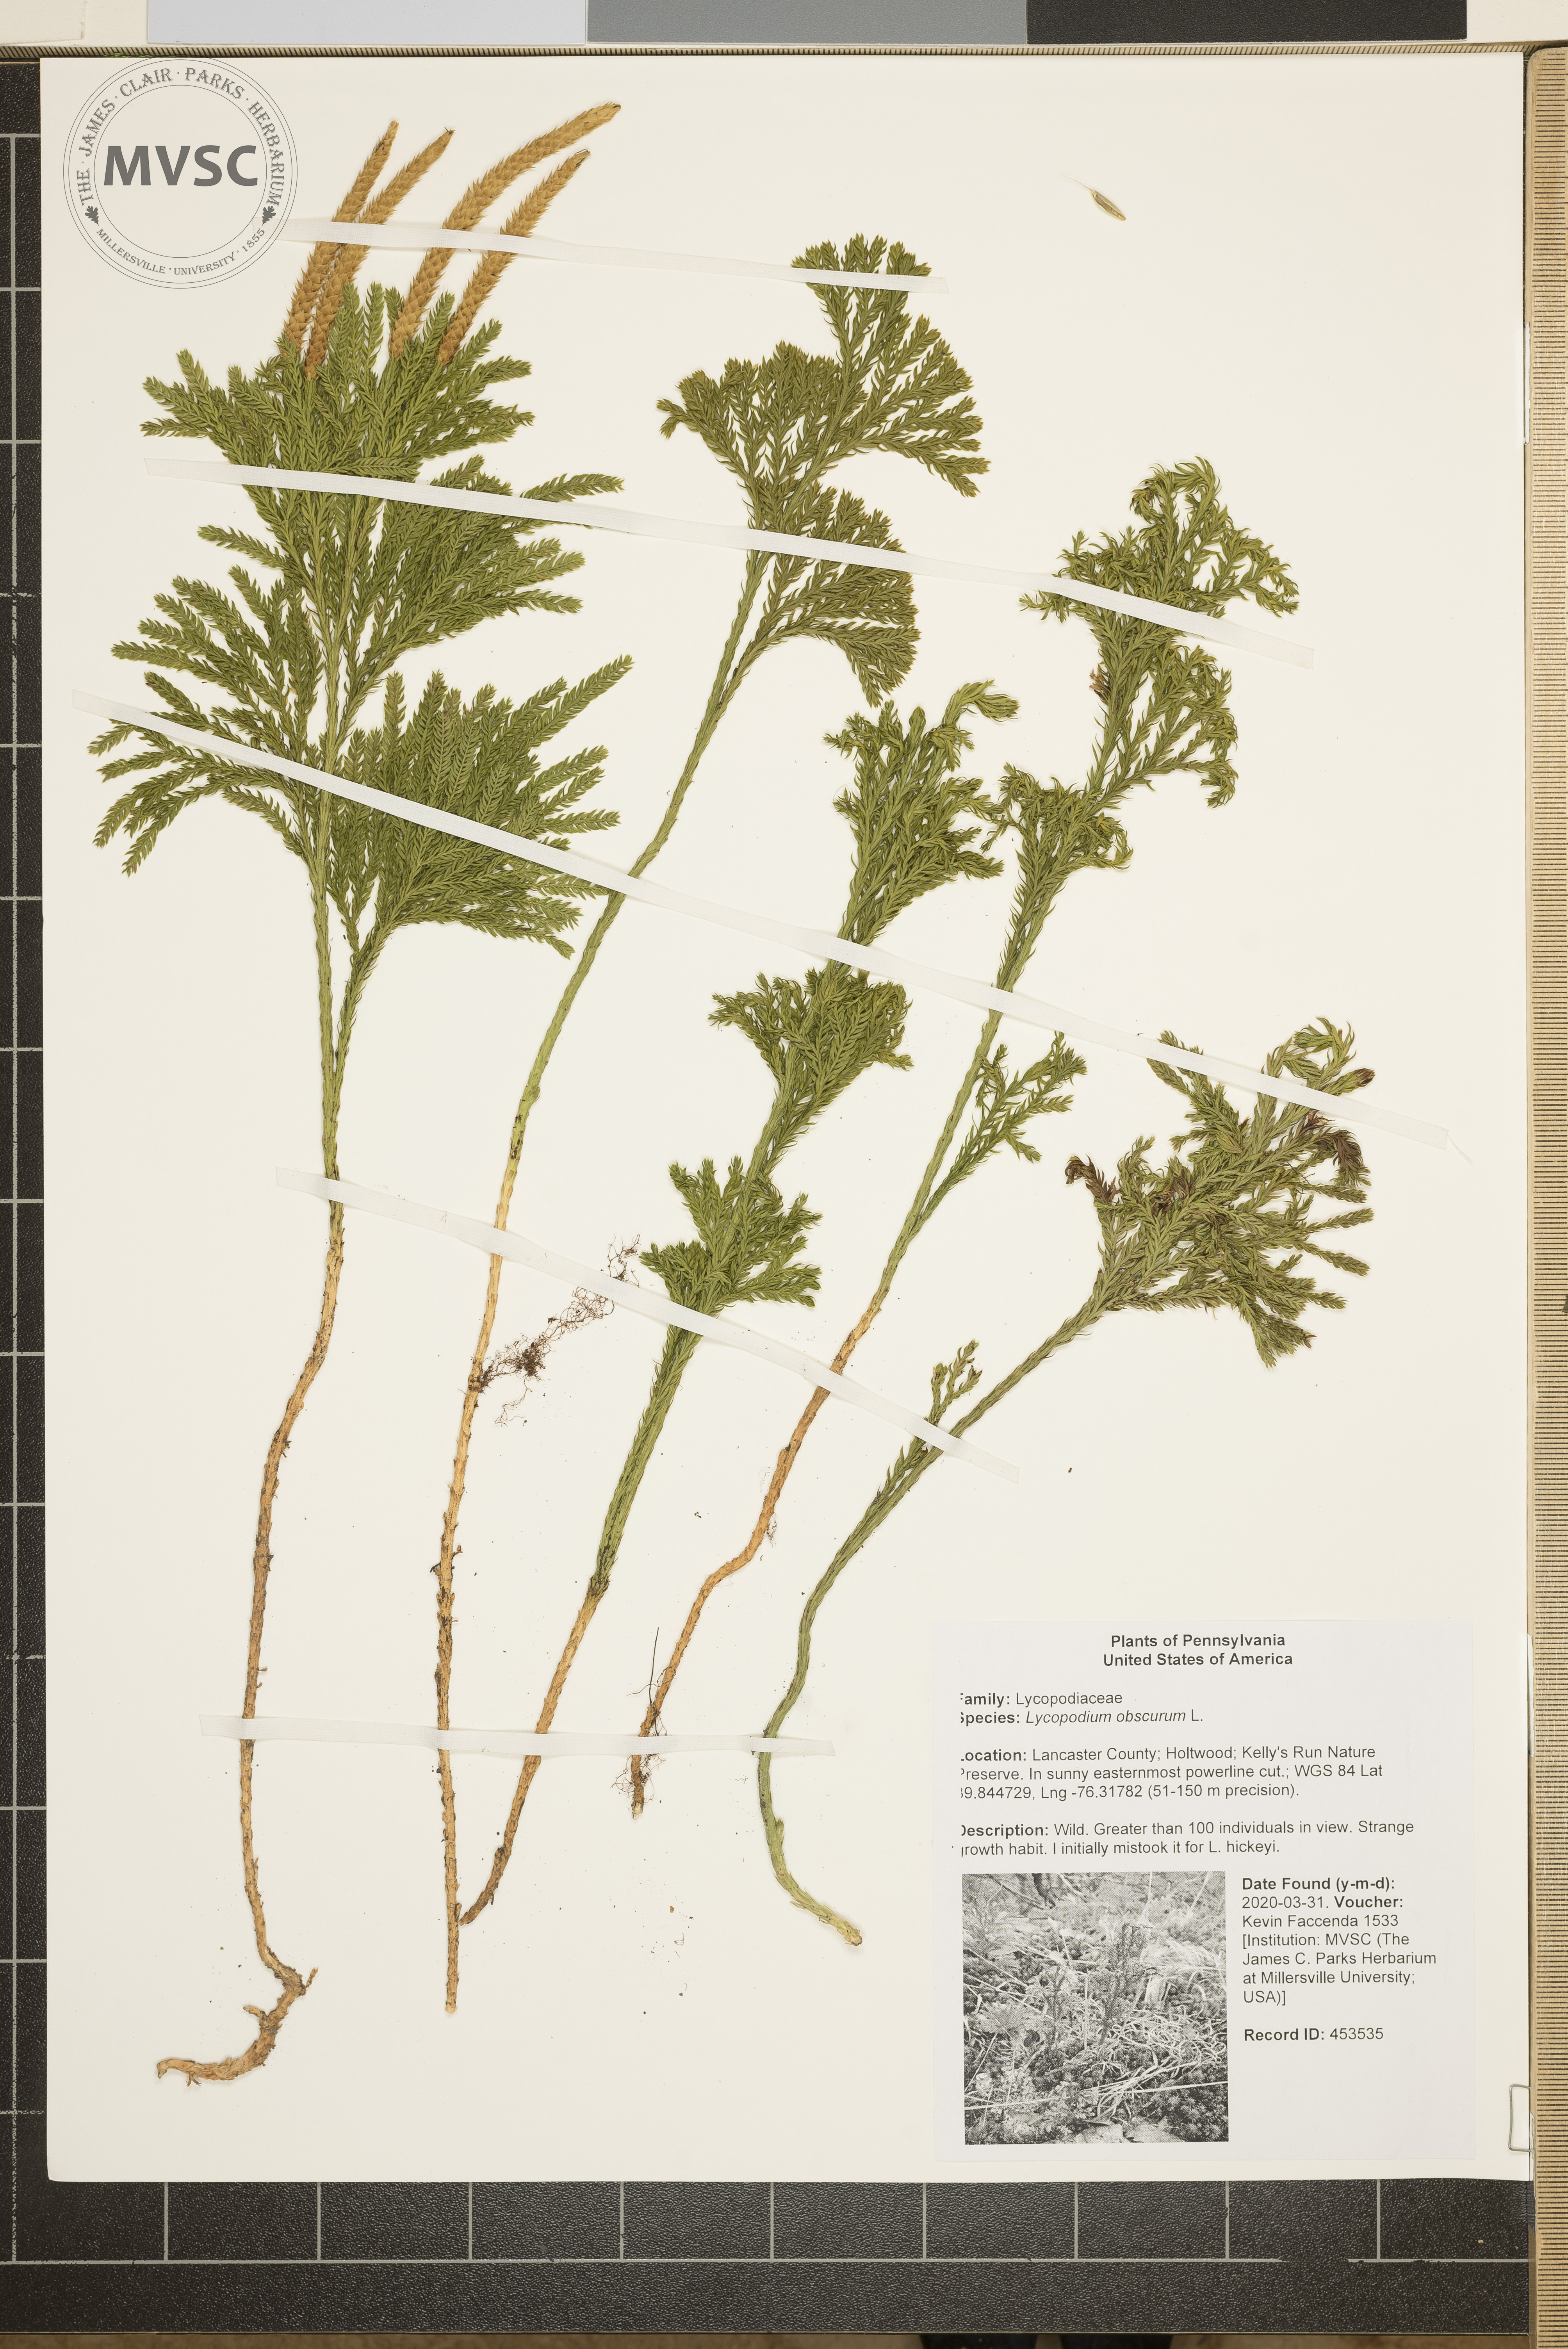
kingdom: Plantae
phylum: Tracheophyta
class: Lycopodiopsida
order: Lycopodiales
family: Lycopodiaceae
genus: Dendrolycopodium
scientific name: Dendrolycopodium obscurum
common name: Common ground-pine
